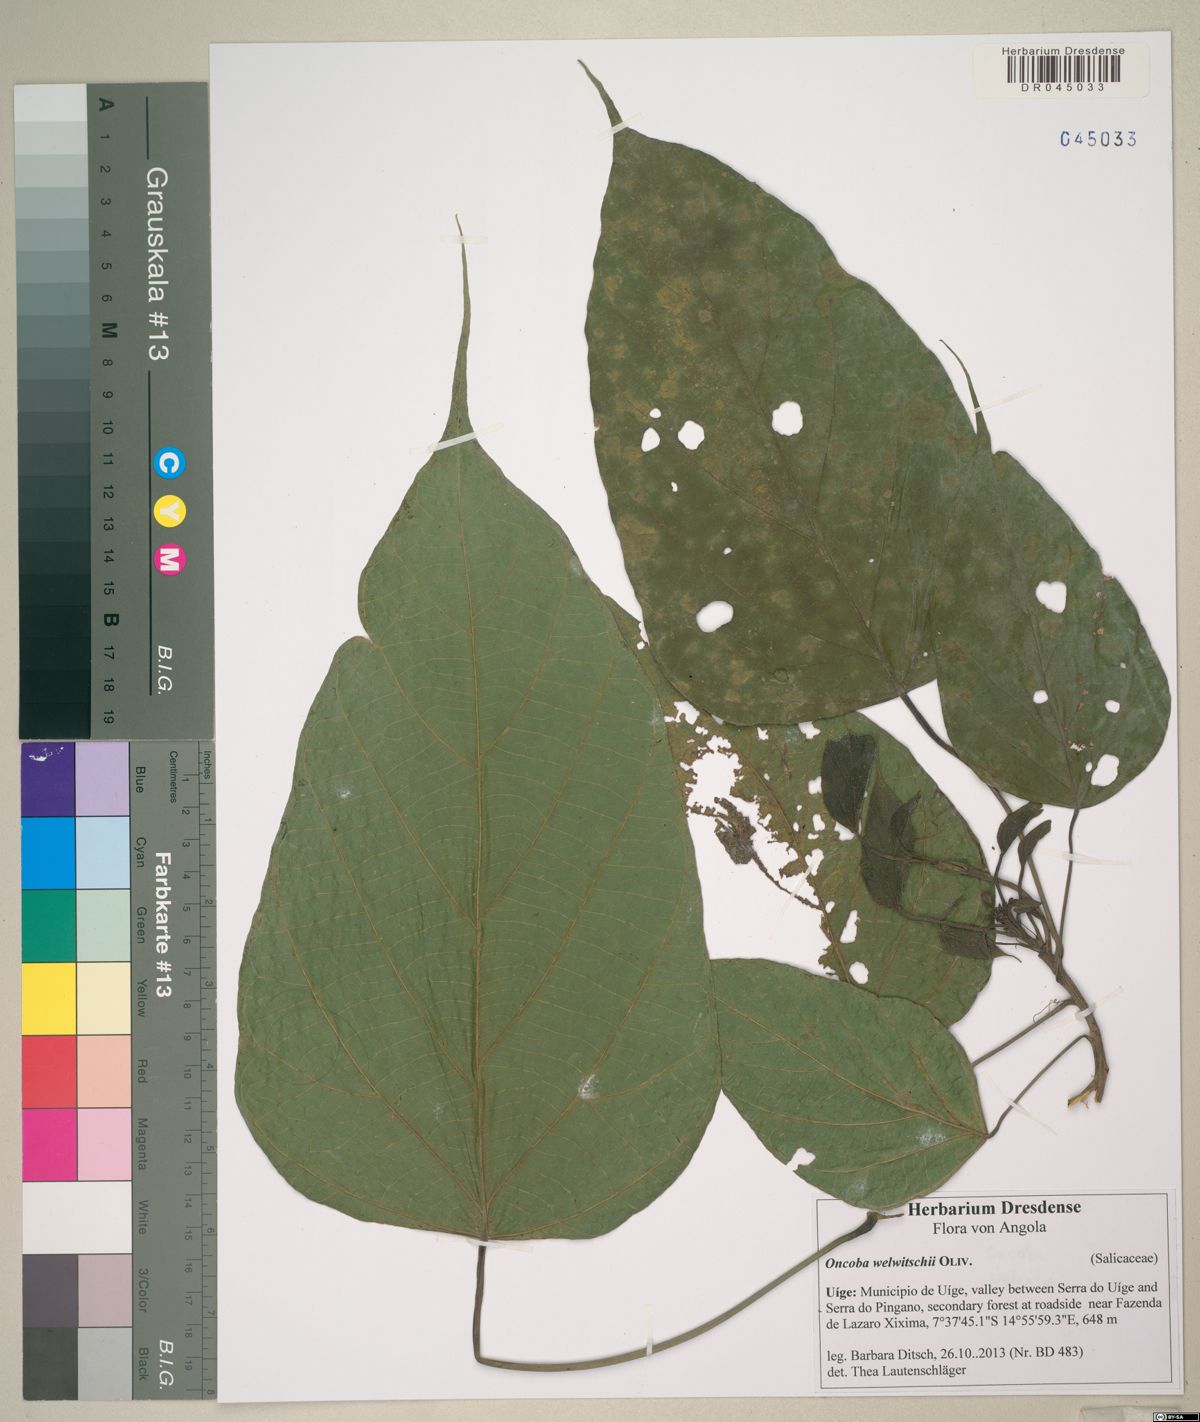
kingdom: Plantae
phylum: Tracheophyta
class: Magnoliopsida
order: Malpighiales
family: Achariaceae
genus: Caloncoba
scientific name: Caloncoba welwitschii
